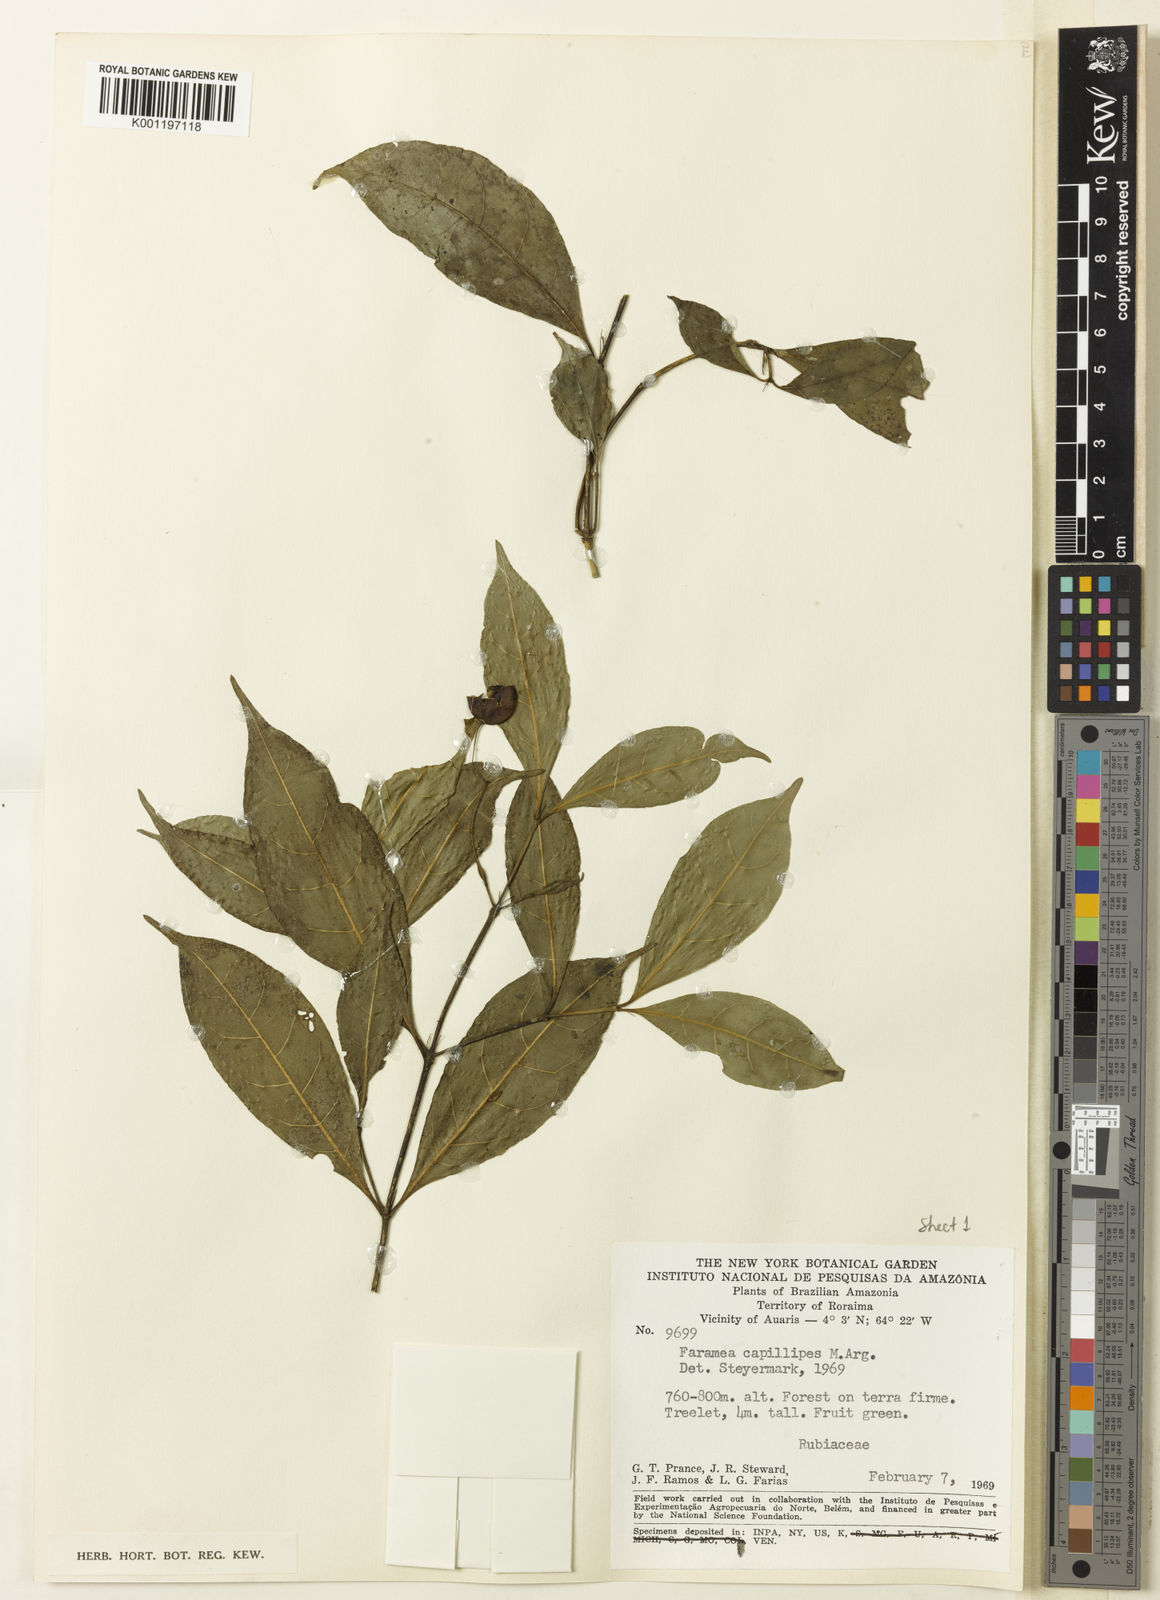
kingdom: Plantae
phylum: Tracheophyta
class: Magnoliopsida
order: Gentianales
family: Rubiaceae
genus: Faramea
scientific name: Faramea
